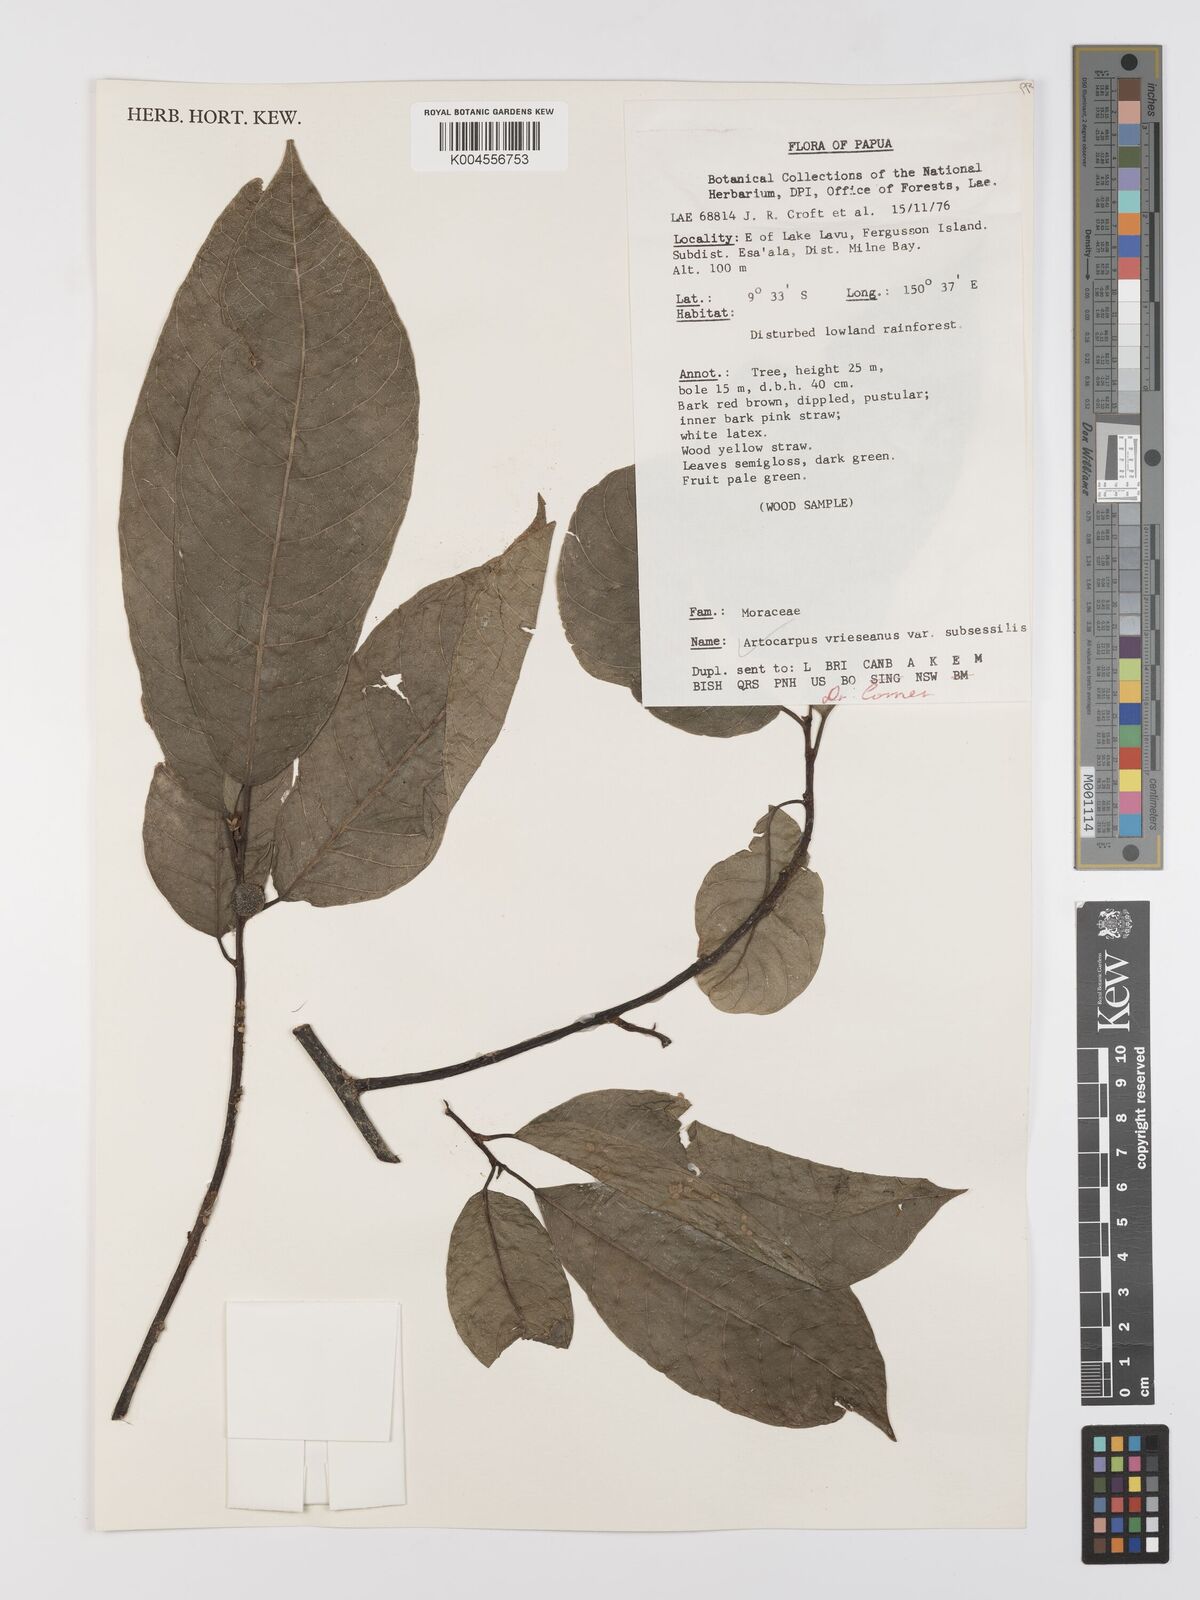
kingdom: Plantae
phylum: Tracheophyta
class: Magnoliopsida
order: Rosales
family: Moraceae
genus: Artocarpus
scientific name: Artocarpus vrieseanus
